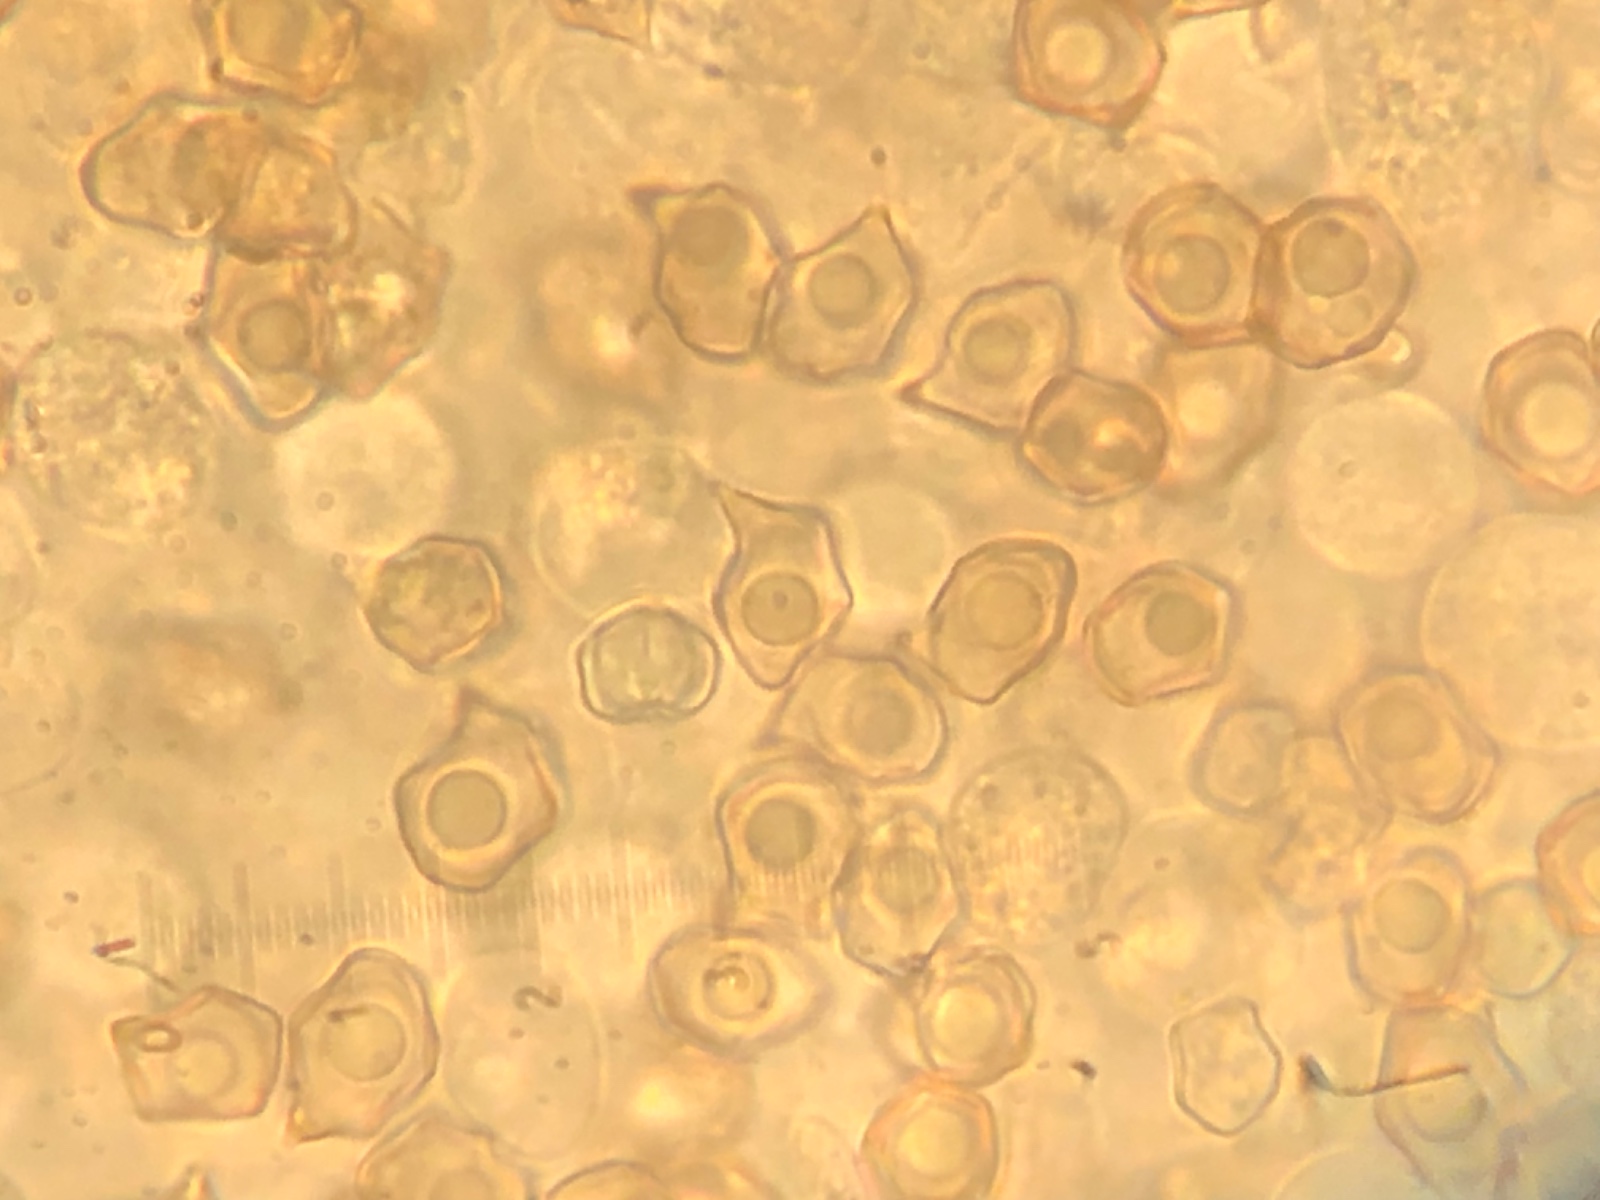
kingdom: Fungi
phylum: Basidiomycota
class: Agaricomycetes
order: Agaricales
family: Entolomataceae
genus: Entoloma
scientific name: Entoloma
